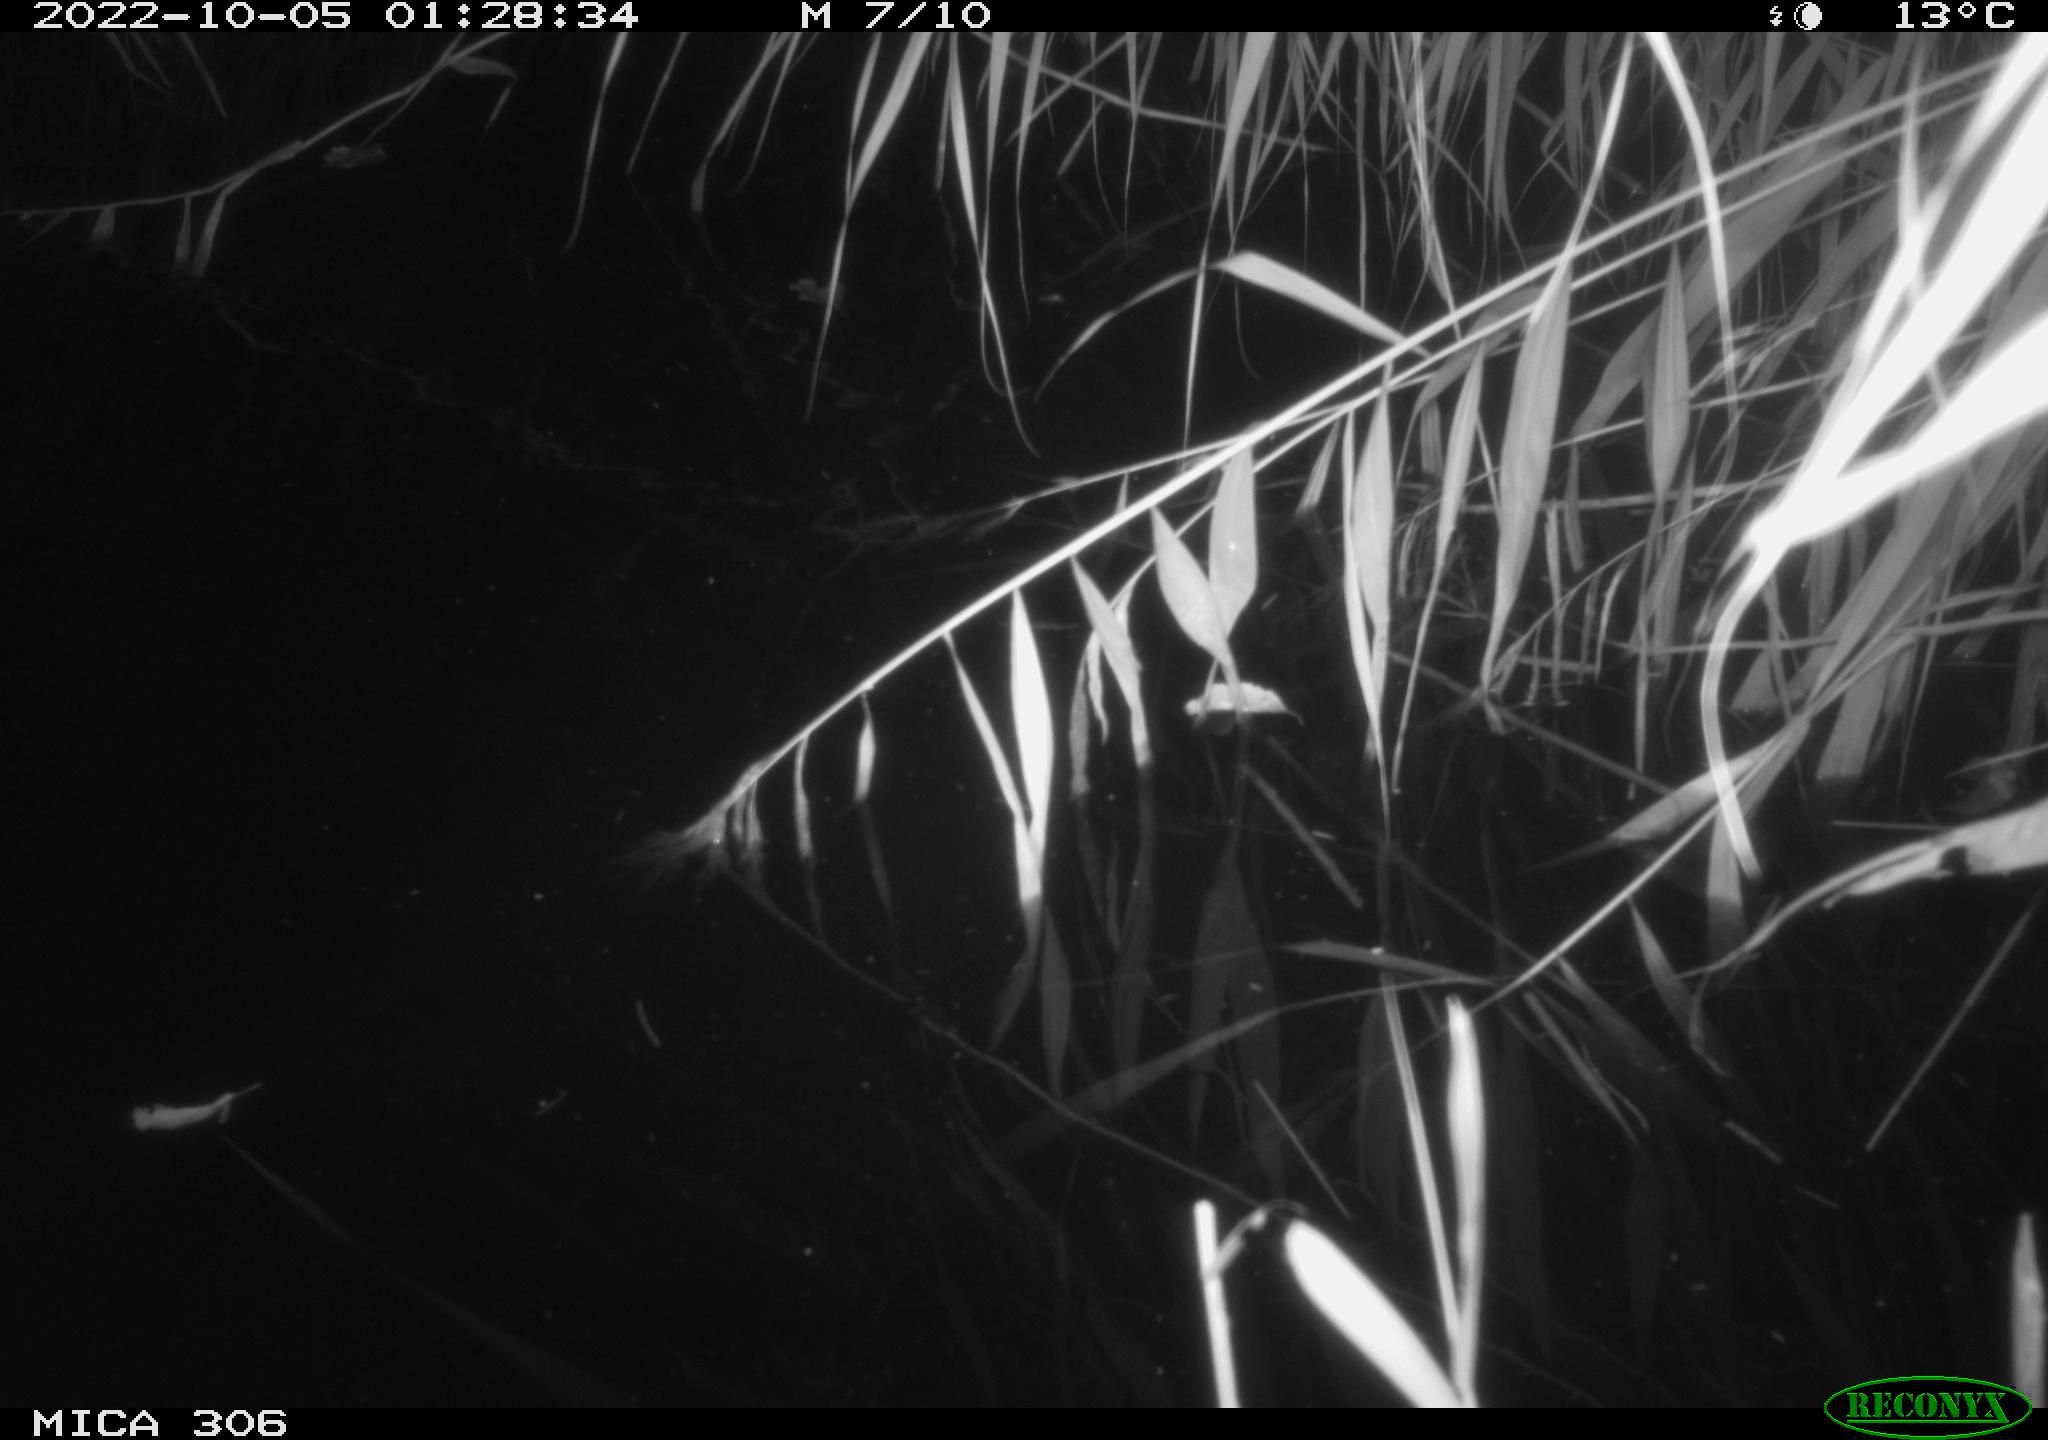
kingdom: Animalia
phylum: Chordata
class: Mammalia
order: Rodentia
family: Muridae
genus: Rattus
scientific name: Rattus norvegicus
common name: Brown rat
